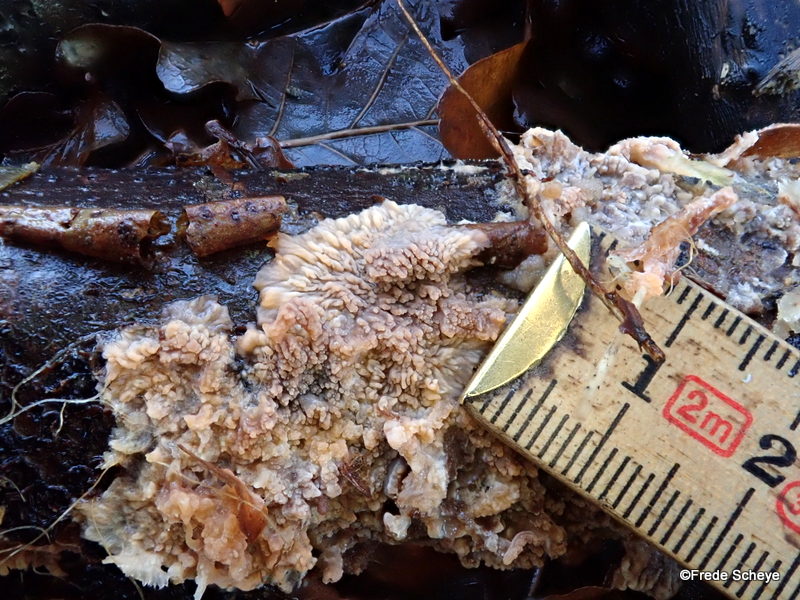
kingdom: Fungi
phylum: Basidiomycota
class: Agaricomycetes
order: Polyporales
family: Meruliaceae
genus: Phlebia
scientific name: Phlebia radiata
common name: stråle-åresvamp
